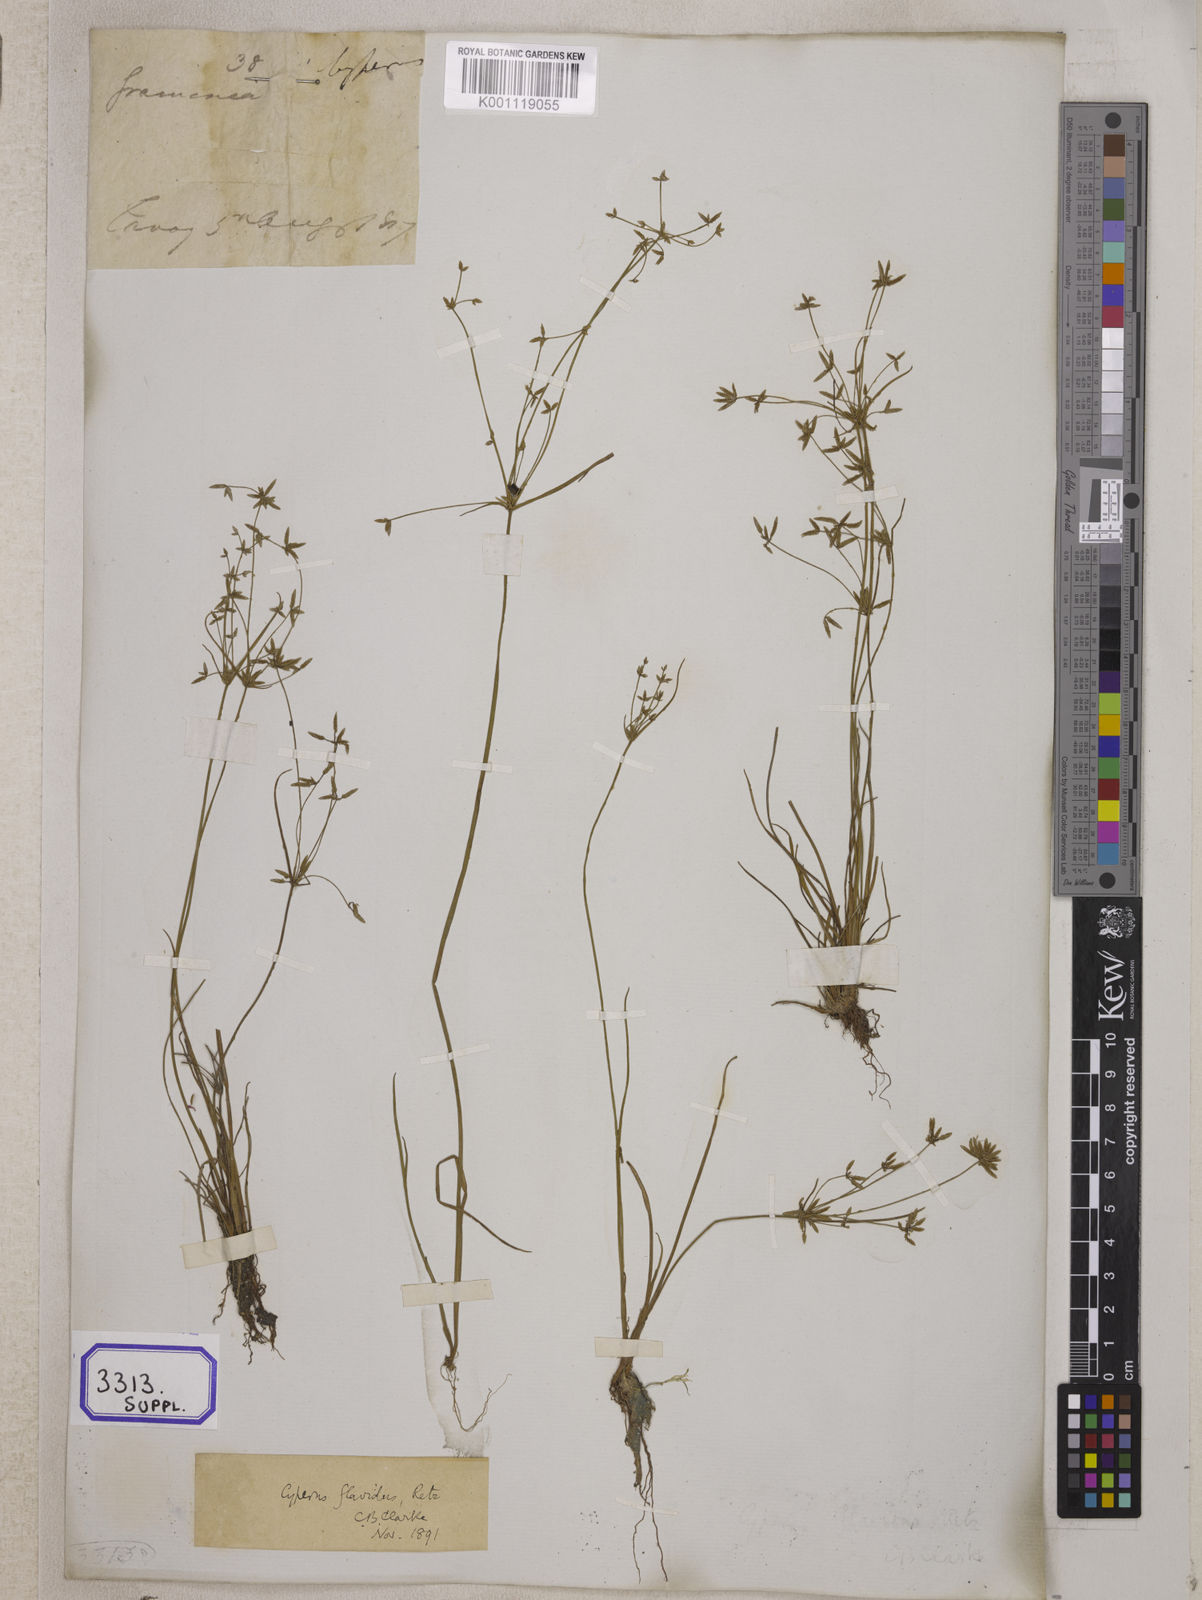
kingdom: Plantae
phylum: Tracheophyta
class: Liliopsida
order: Poales
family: Cyperaceae
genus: Cyperus
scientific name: Cyperus
